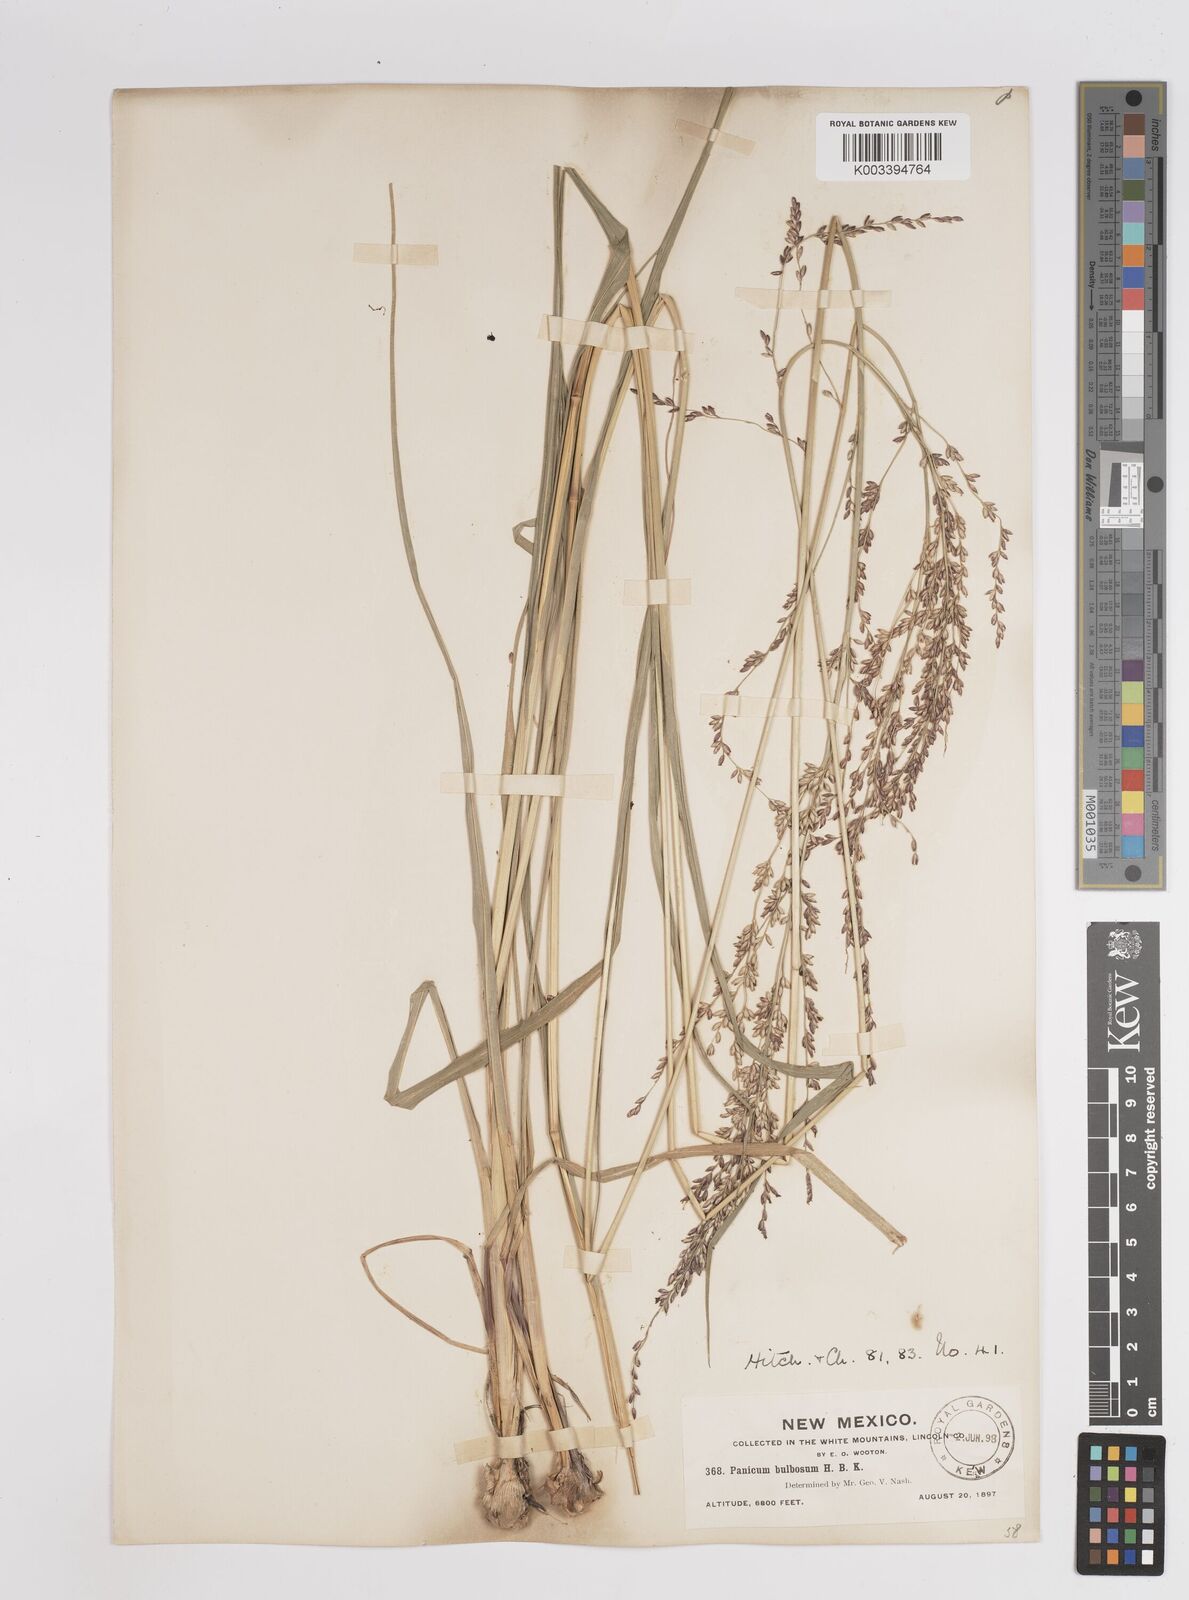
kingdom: Plantae
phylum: Tracheophyta
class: Liliopsida
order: Poales
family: Poaceae
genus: Zuloagaea
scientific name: Zuloagaea bulbosa
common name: Canyon panic grass
